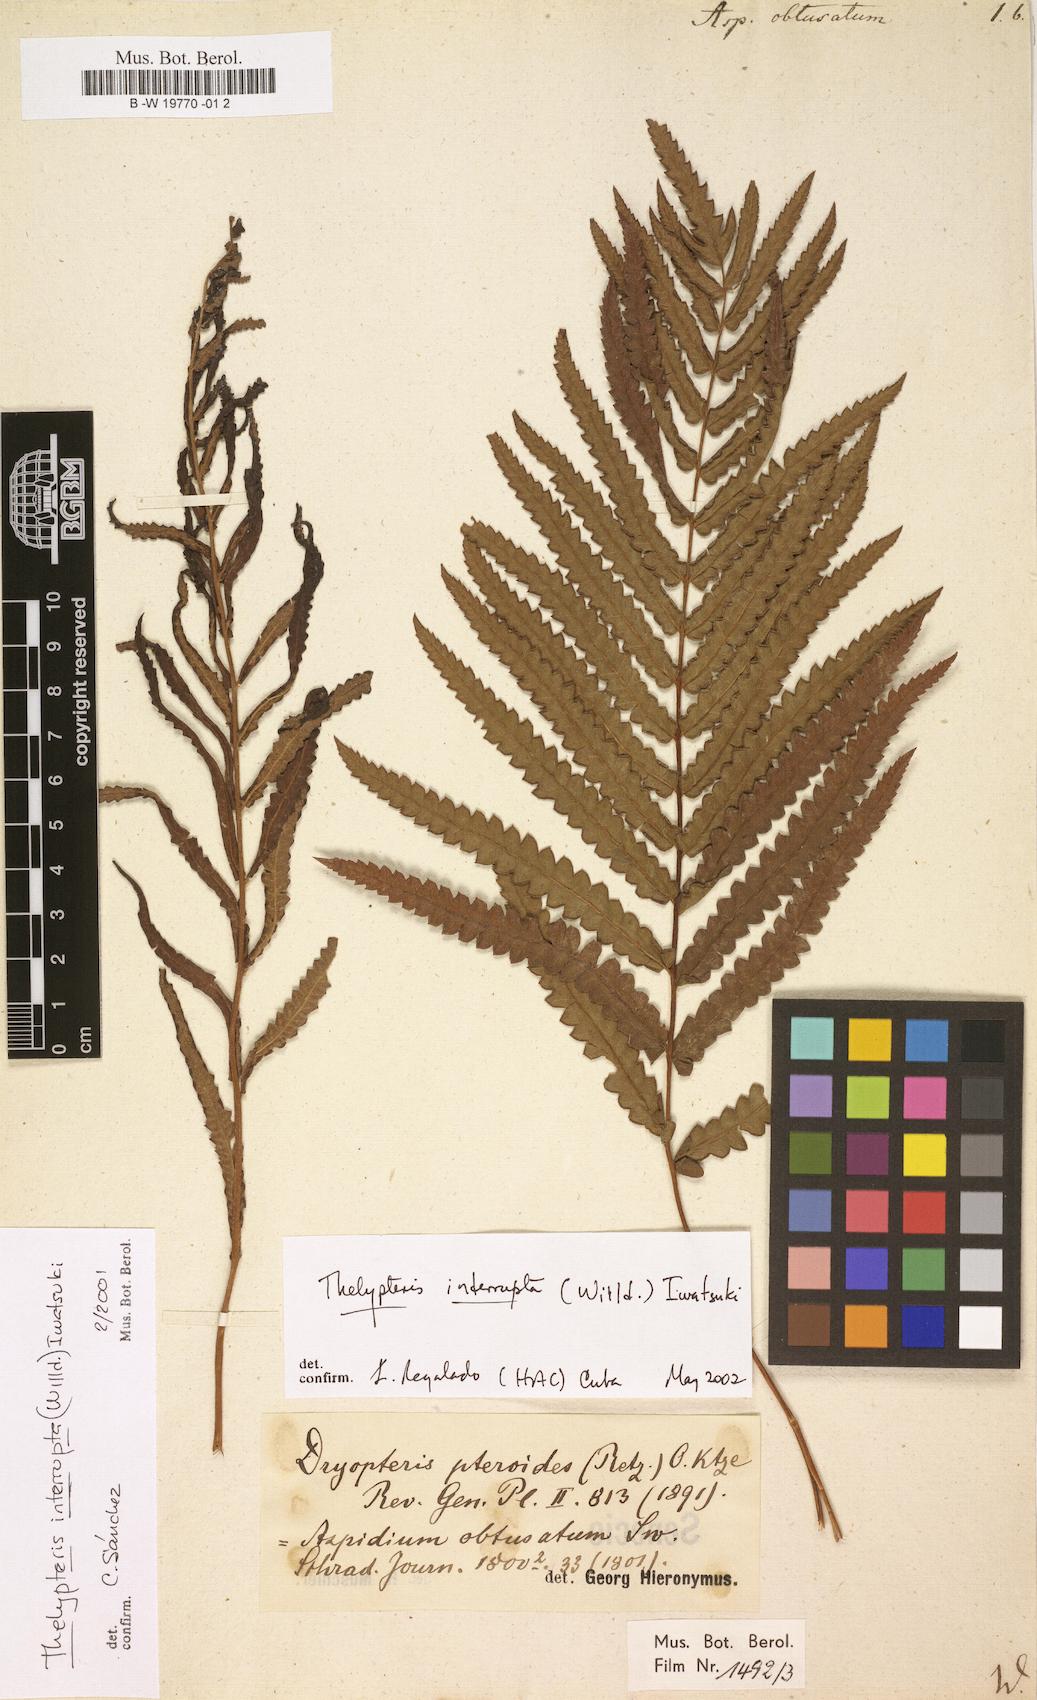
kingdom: Plantae
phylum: Tracheophyta
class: Polypodiopsida
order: Polypodiales
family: Thelypteridaceae
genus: Cyclosorus
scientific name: Cyclosorus interruptus
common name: Neke fern
